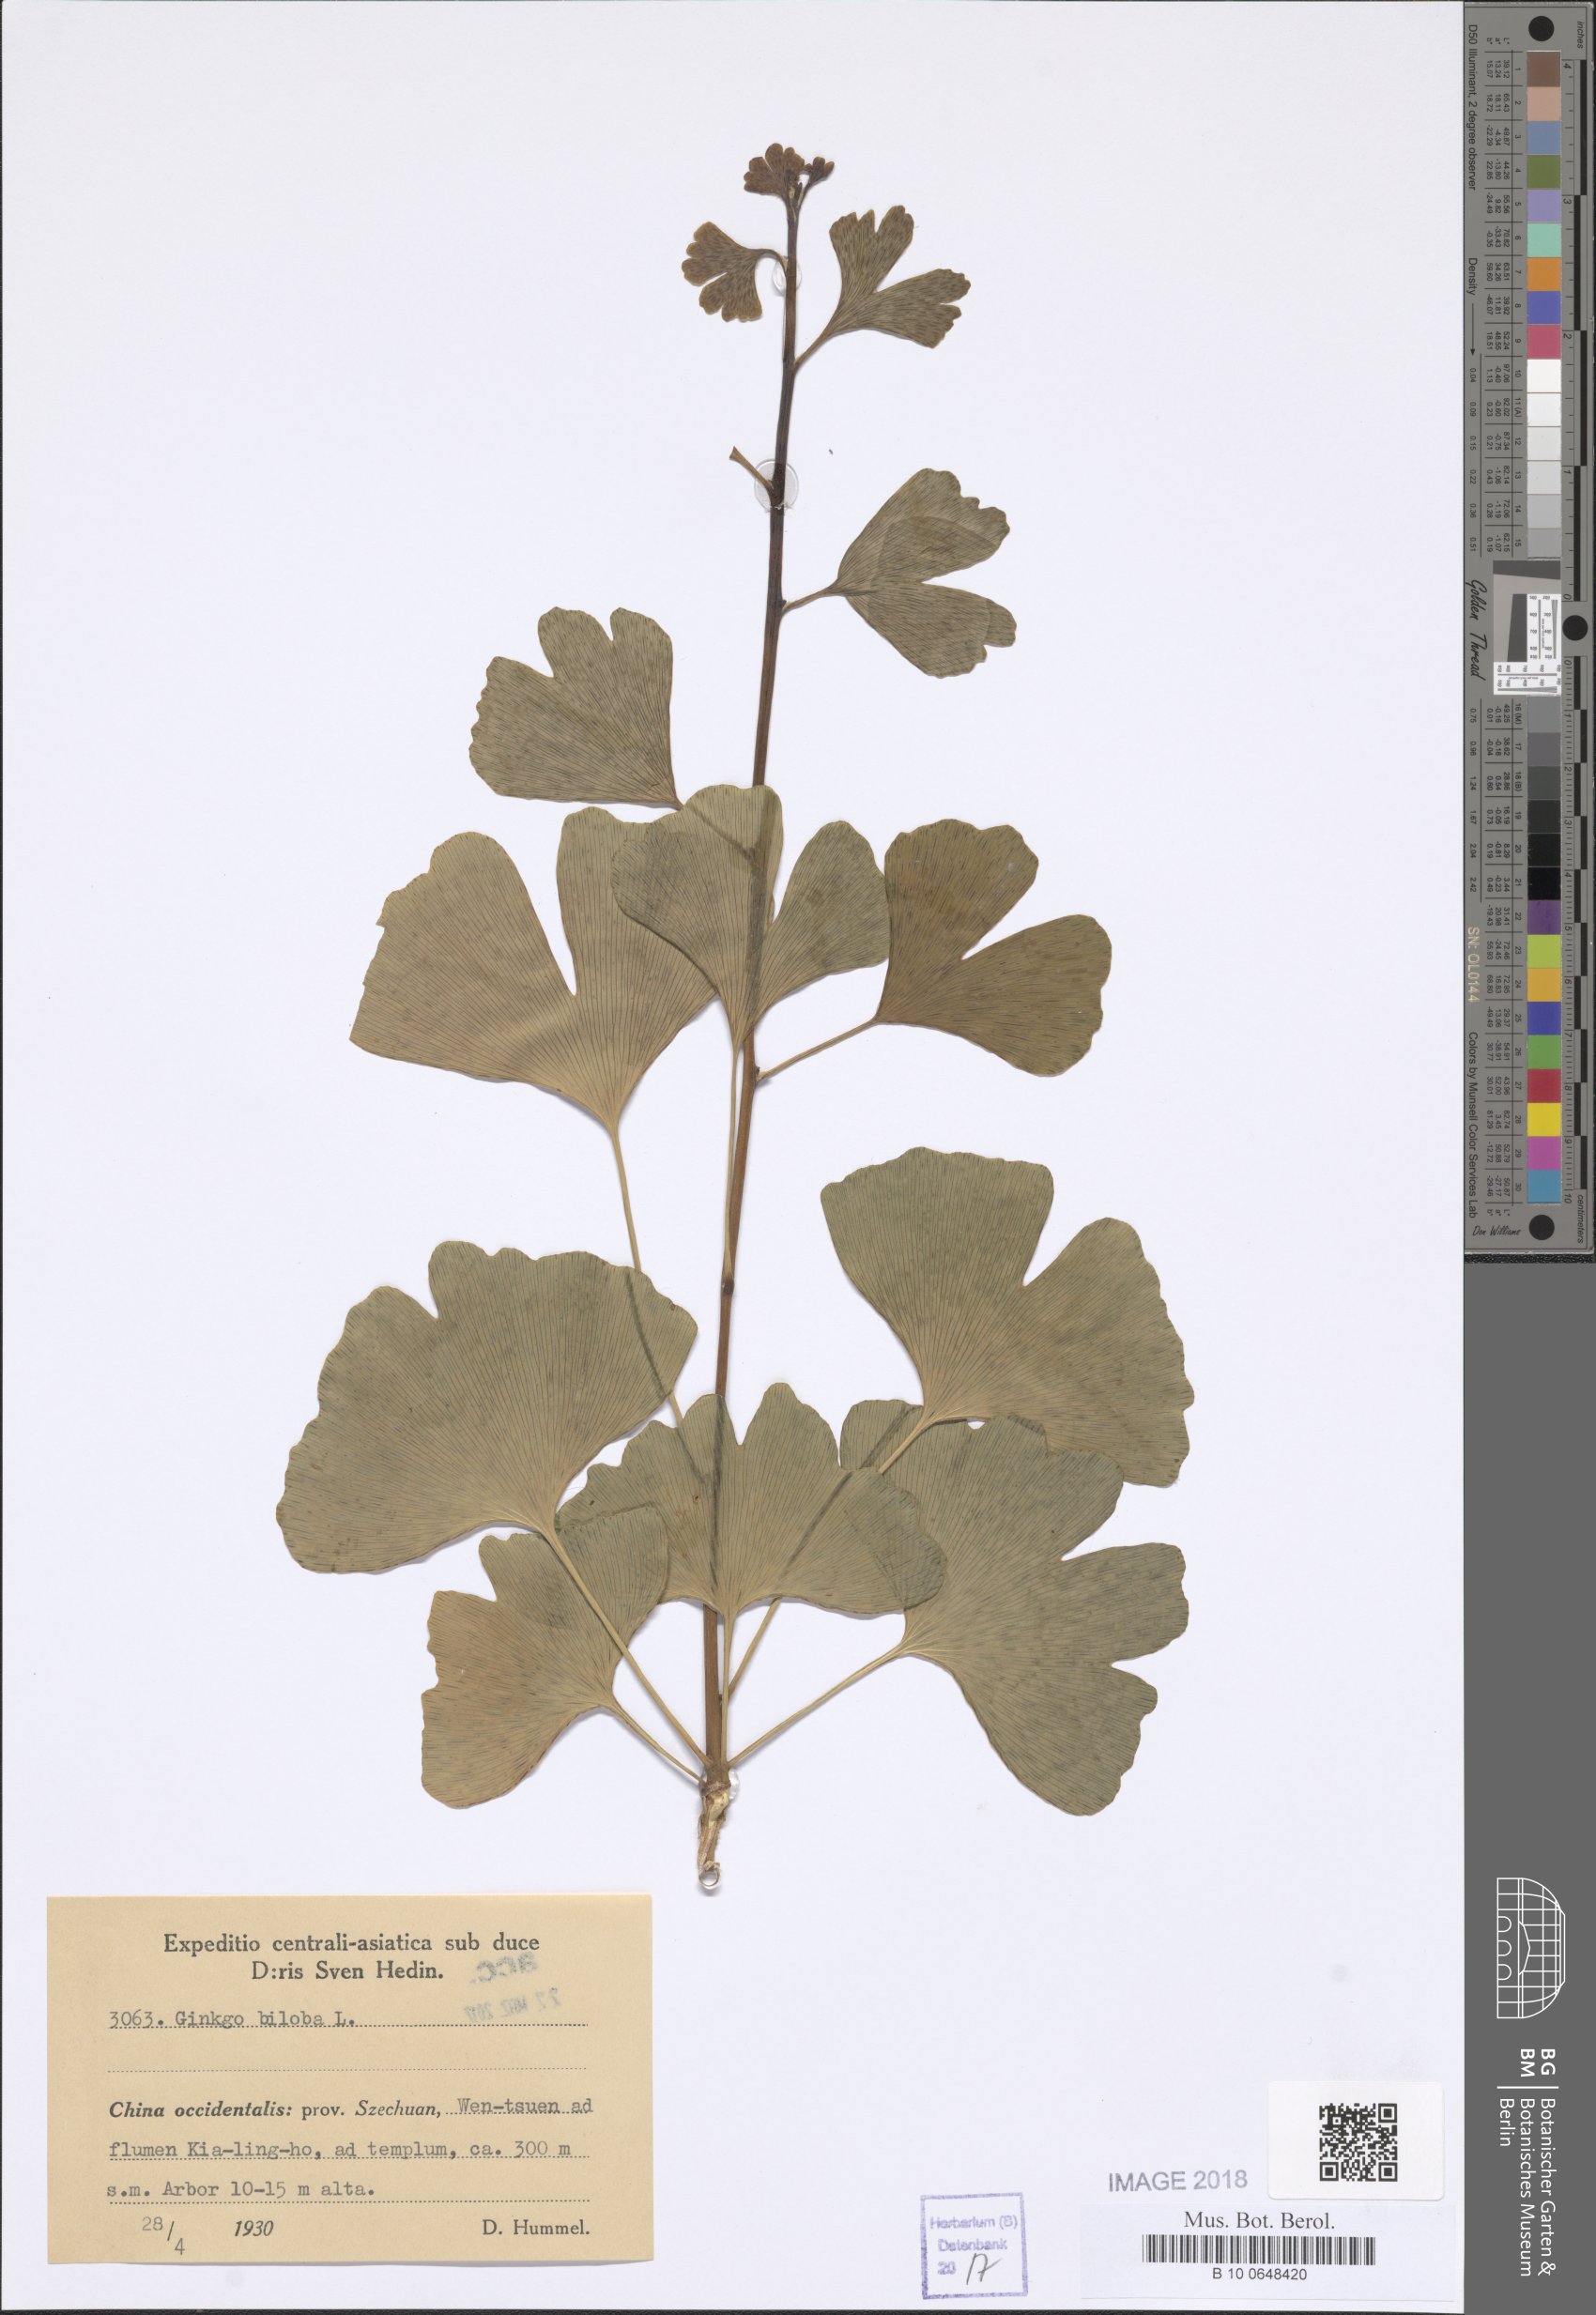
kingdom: Plantae
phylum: Tracheophyta
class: Ginkgoopsida
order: Ginkgoales
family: Ginkgoaceae
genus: Ginkgo
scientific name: Ginkgo biloba
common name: Ginkgo
